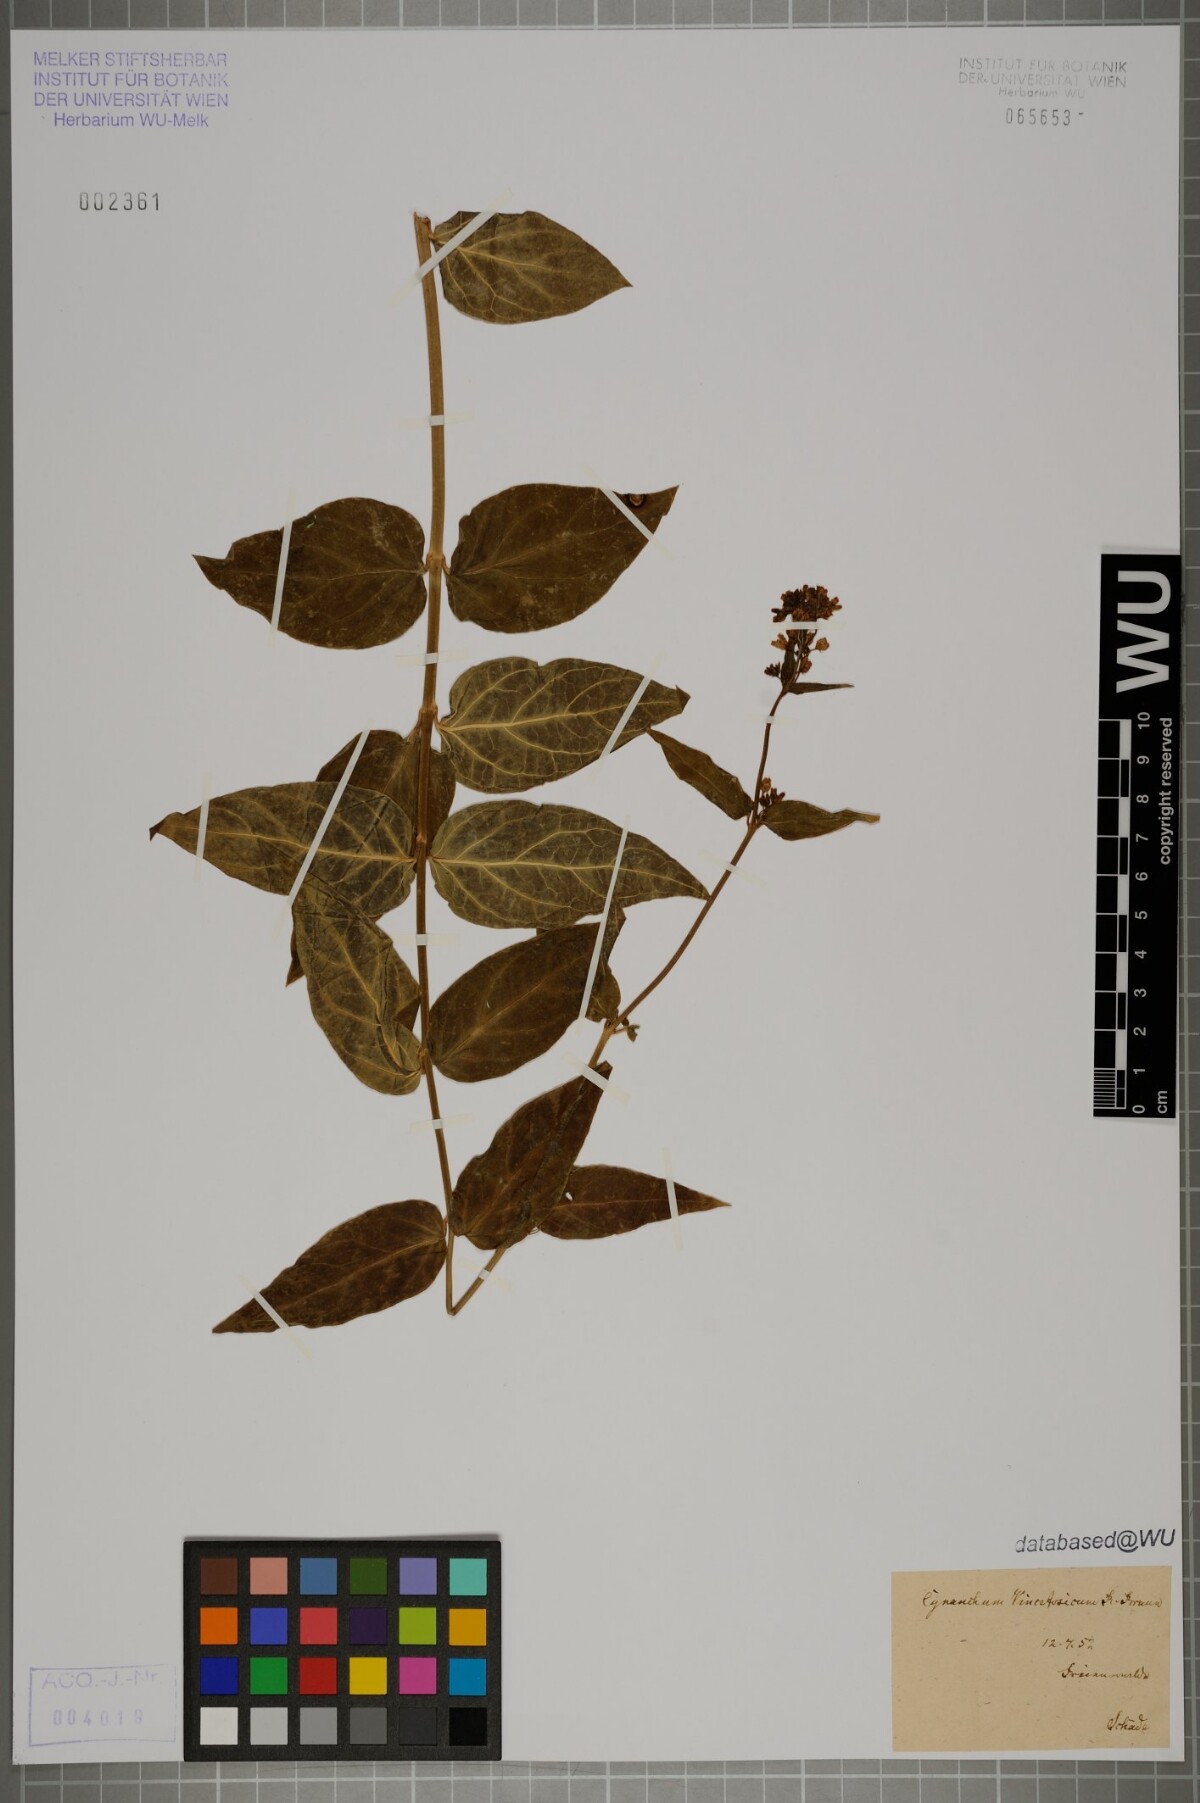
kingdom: Plantae
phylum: Tracheophyta
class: Magnoliopsida
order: Gentianales
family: Apocynaceae
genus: Vincetoxicum
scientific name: Vincetoxicum hirundinaria
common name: White swallowwort
